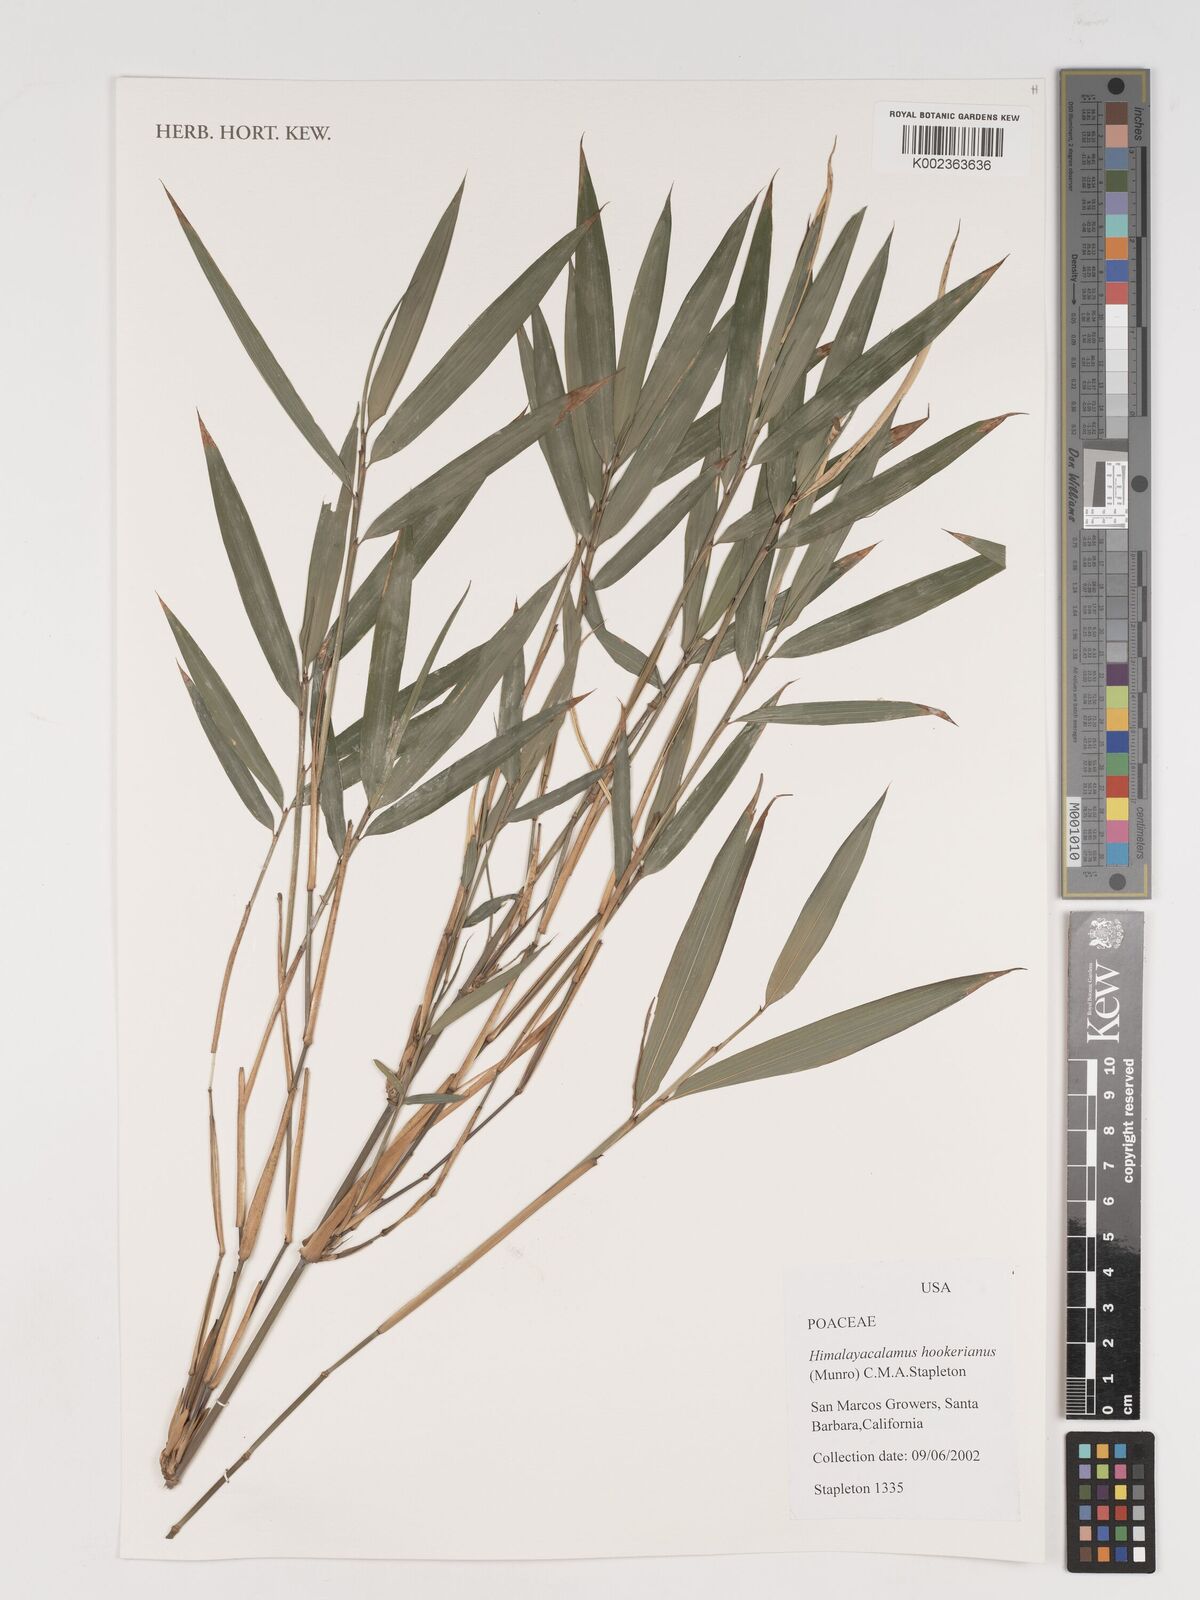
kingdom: Plantae
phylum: Tracheophyta
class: Liliopsida
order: Poales
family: Poaceae
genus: Himalayacalamus
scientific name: Himalayacalamus hookerianus
